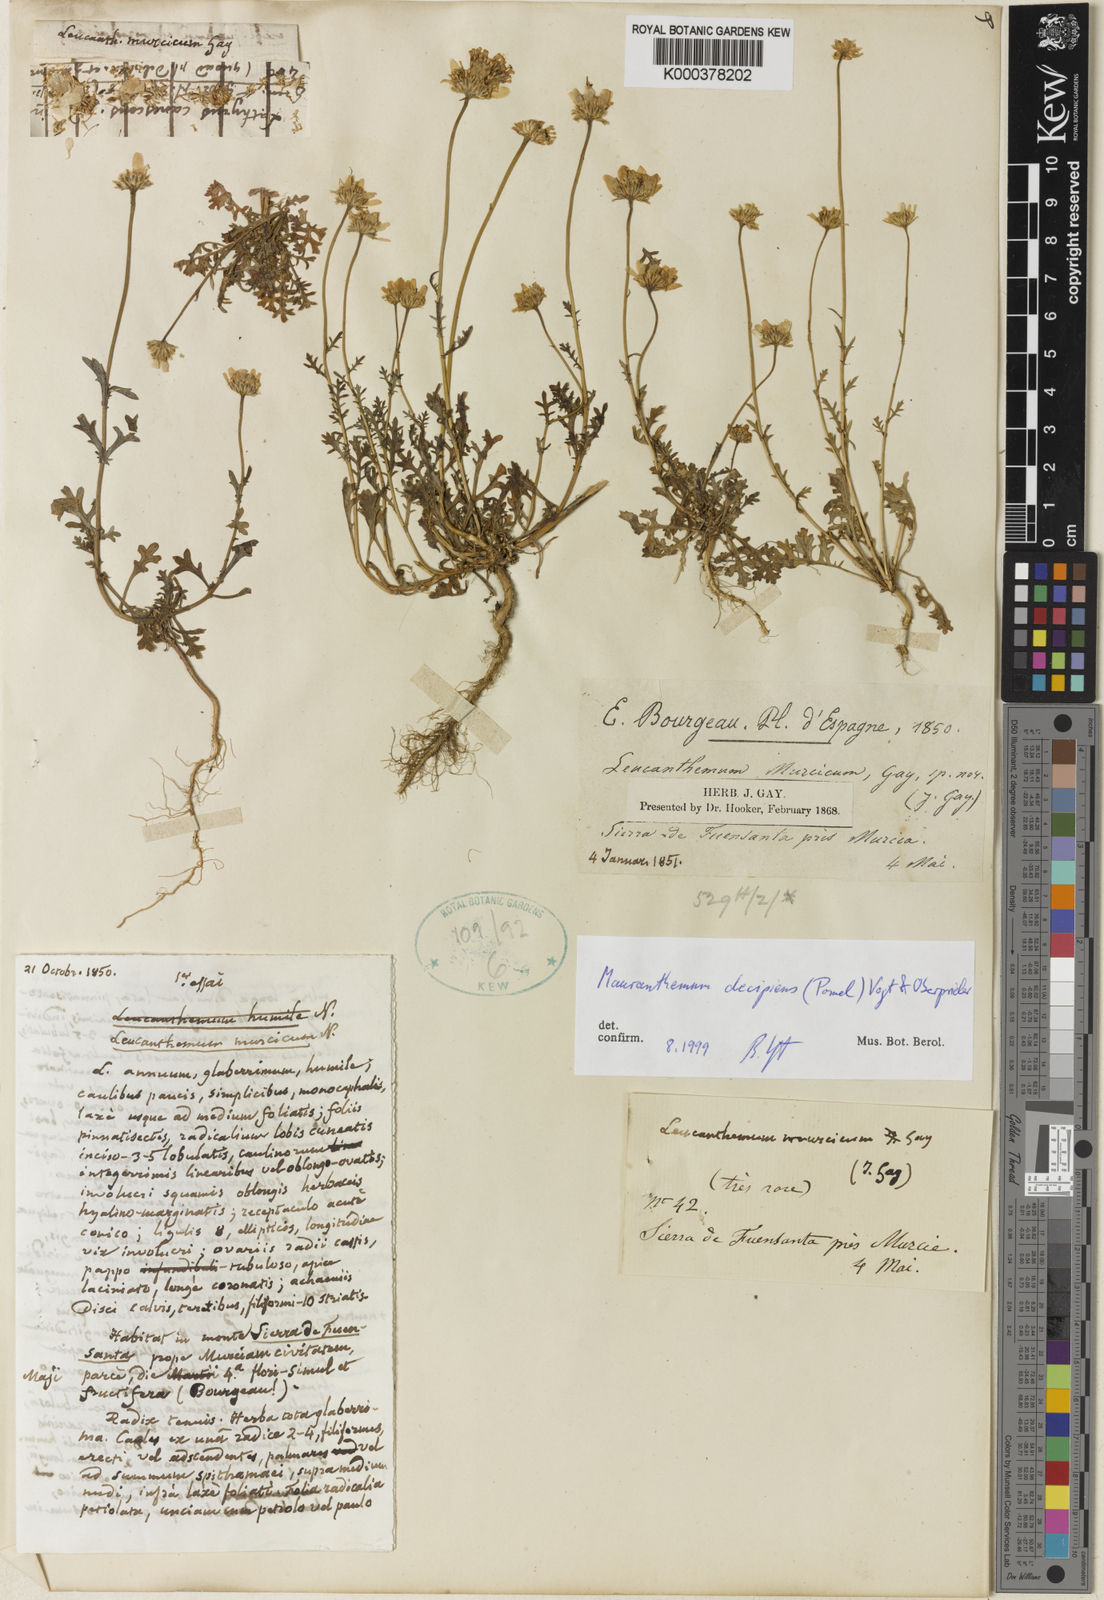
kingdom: Plantae
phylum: Tracheophyta
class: Magnoliopsida
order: Asterales
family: Asteraceae
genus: Mauranthemum
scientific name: Mauranthemum decipiens
